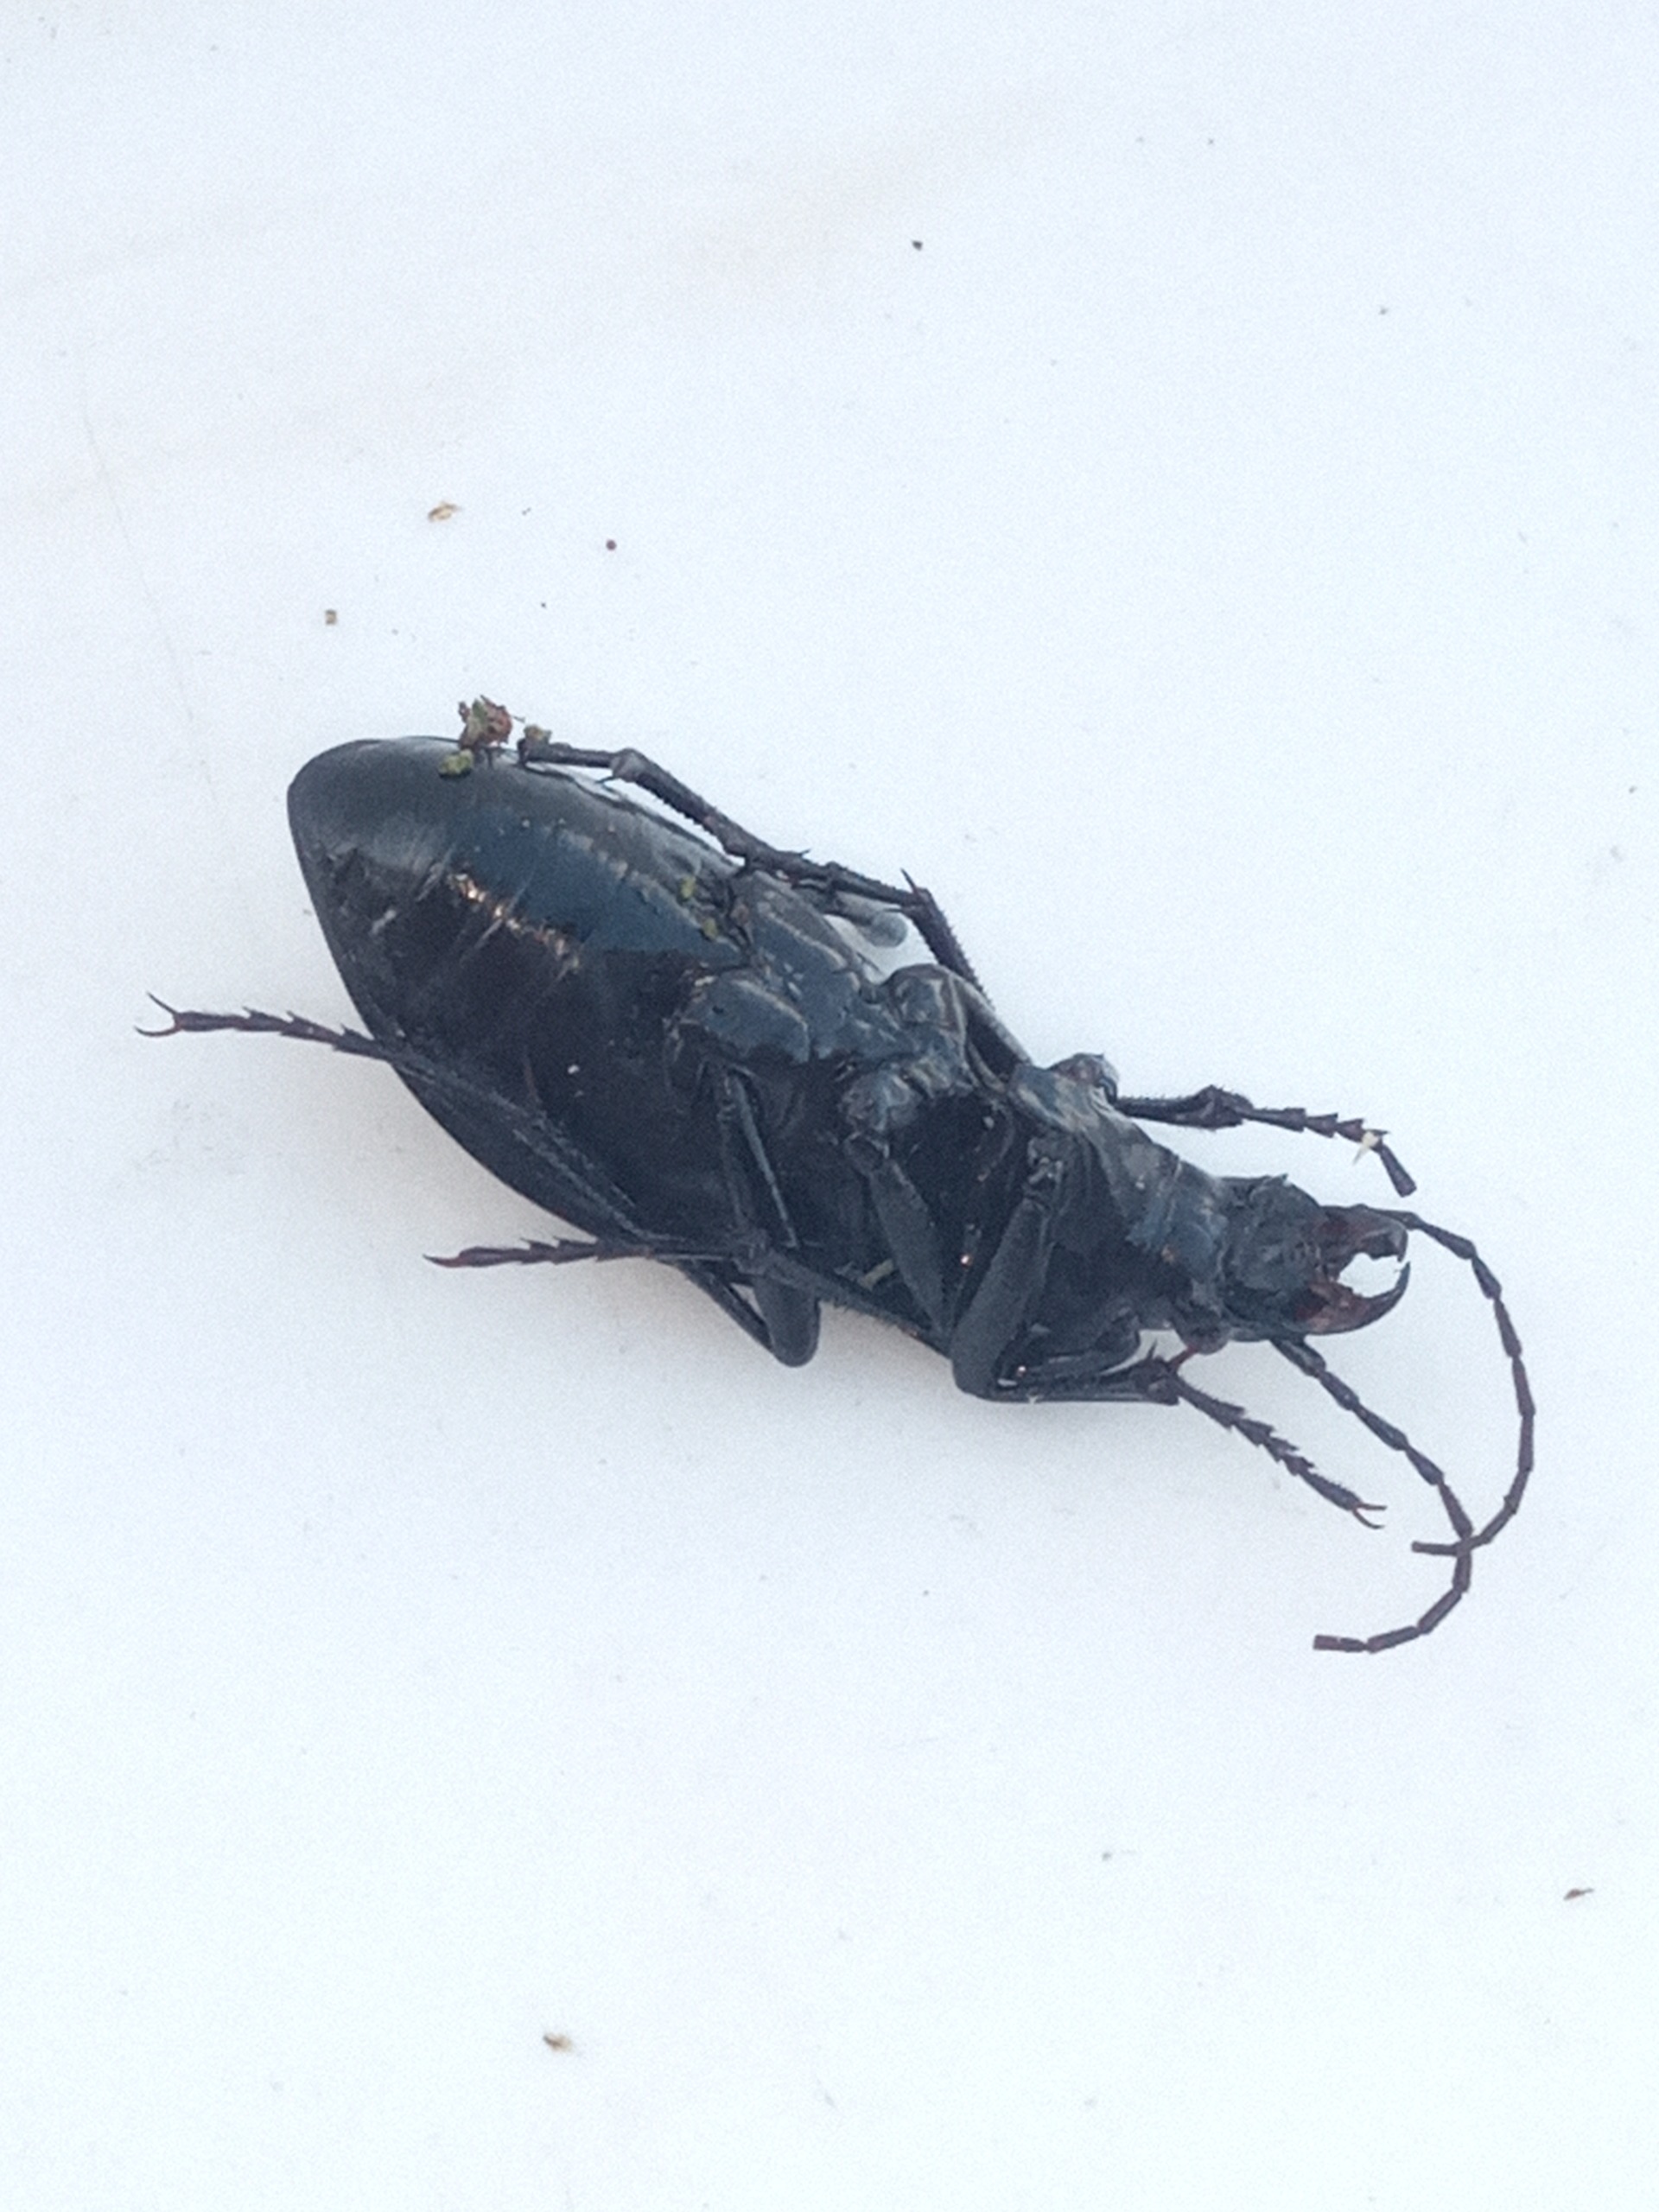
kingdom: Animalia
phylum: Arthropoda
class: Insecta
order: Coleoptera
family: Carabidae
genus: Carabus
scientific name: Carabus problematicus
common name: Jysk løber
